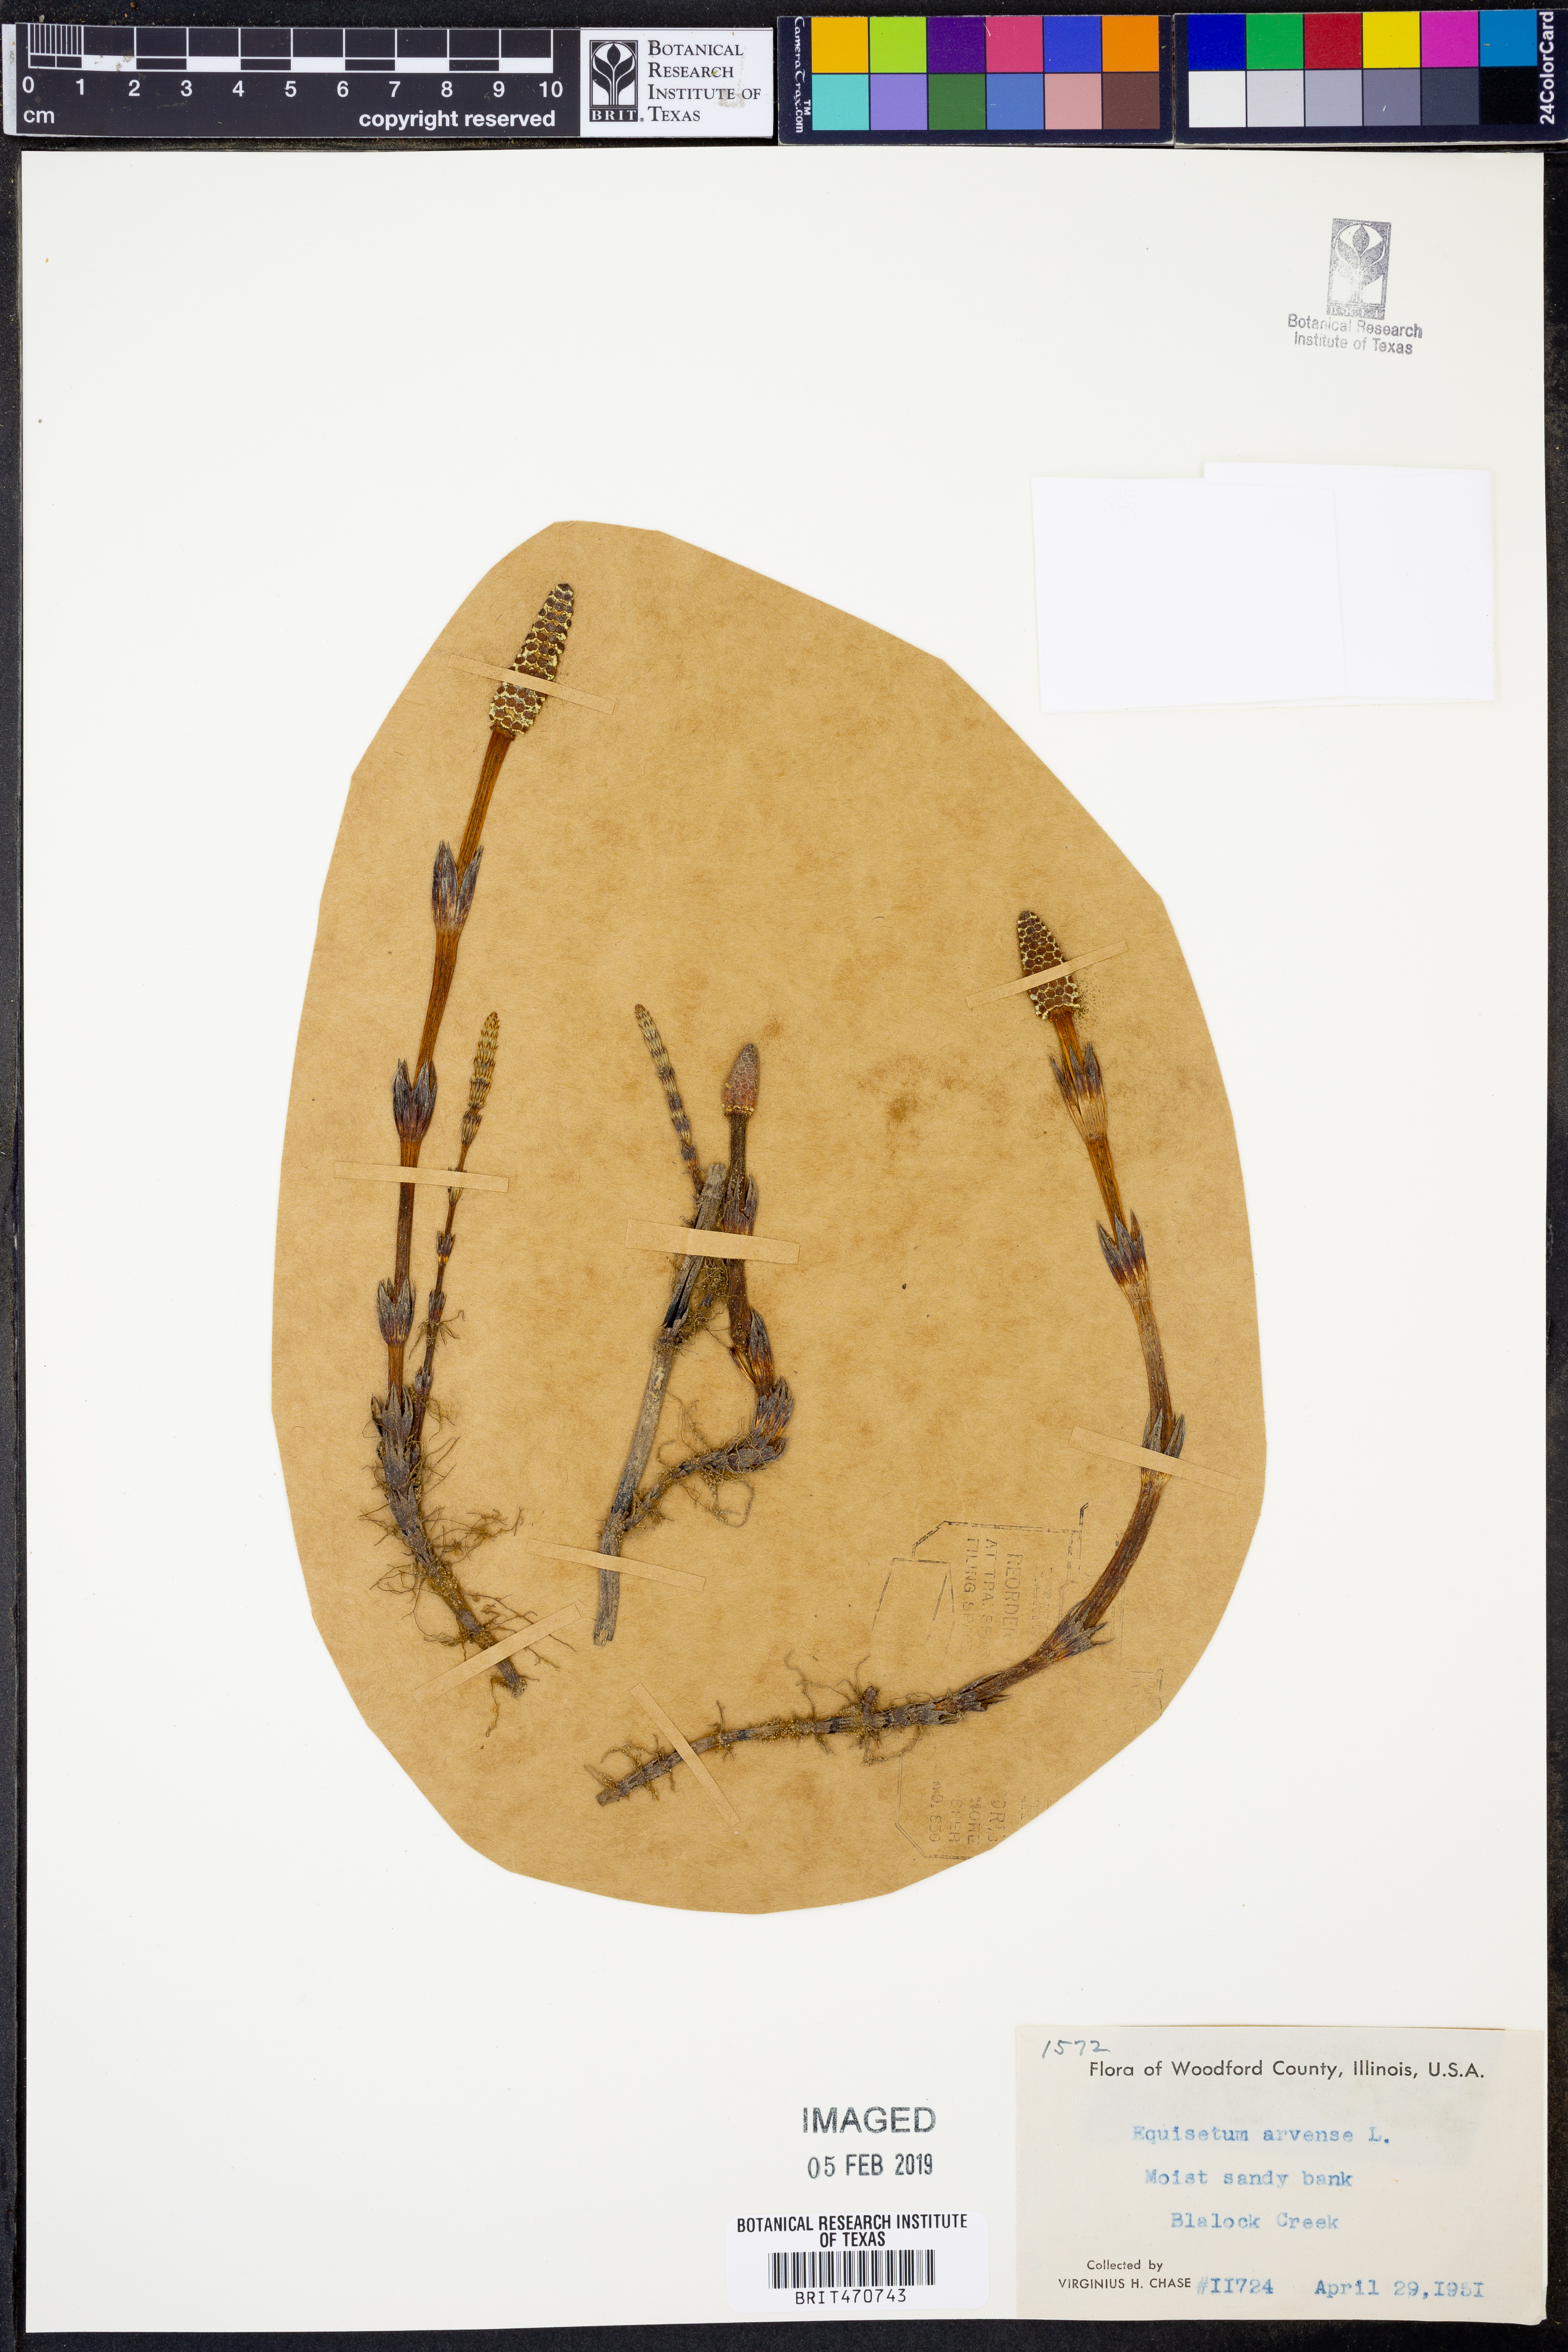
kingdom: Plantae
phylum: Tracheophyta
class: Polypodiopsida
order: Equisetales
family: Equisetaceae
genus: Equisetum
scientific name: Equisetum arvense
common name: Field horsetail
